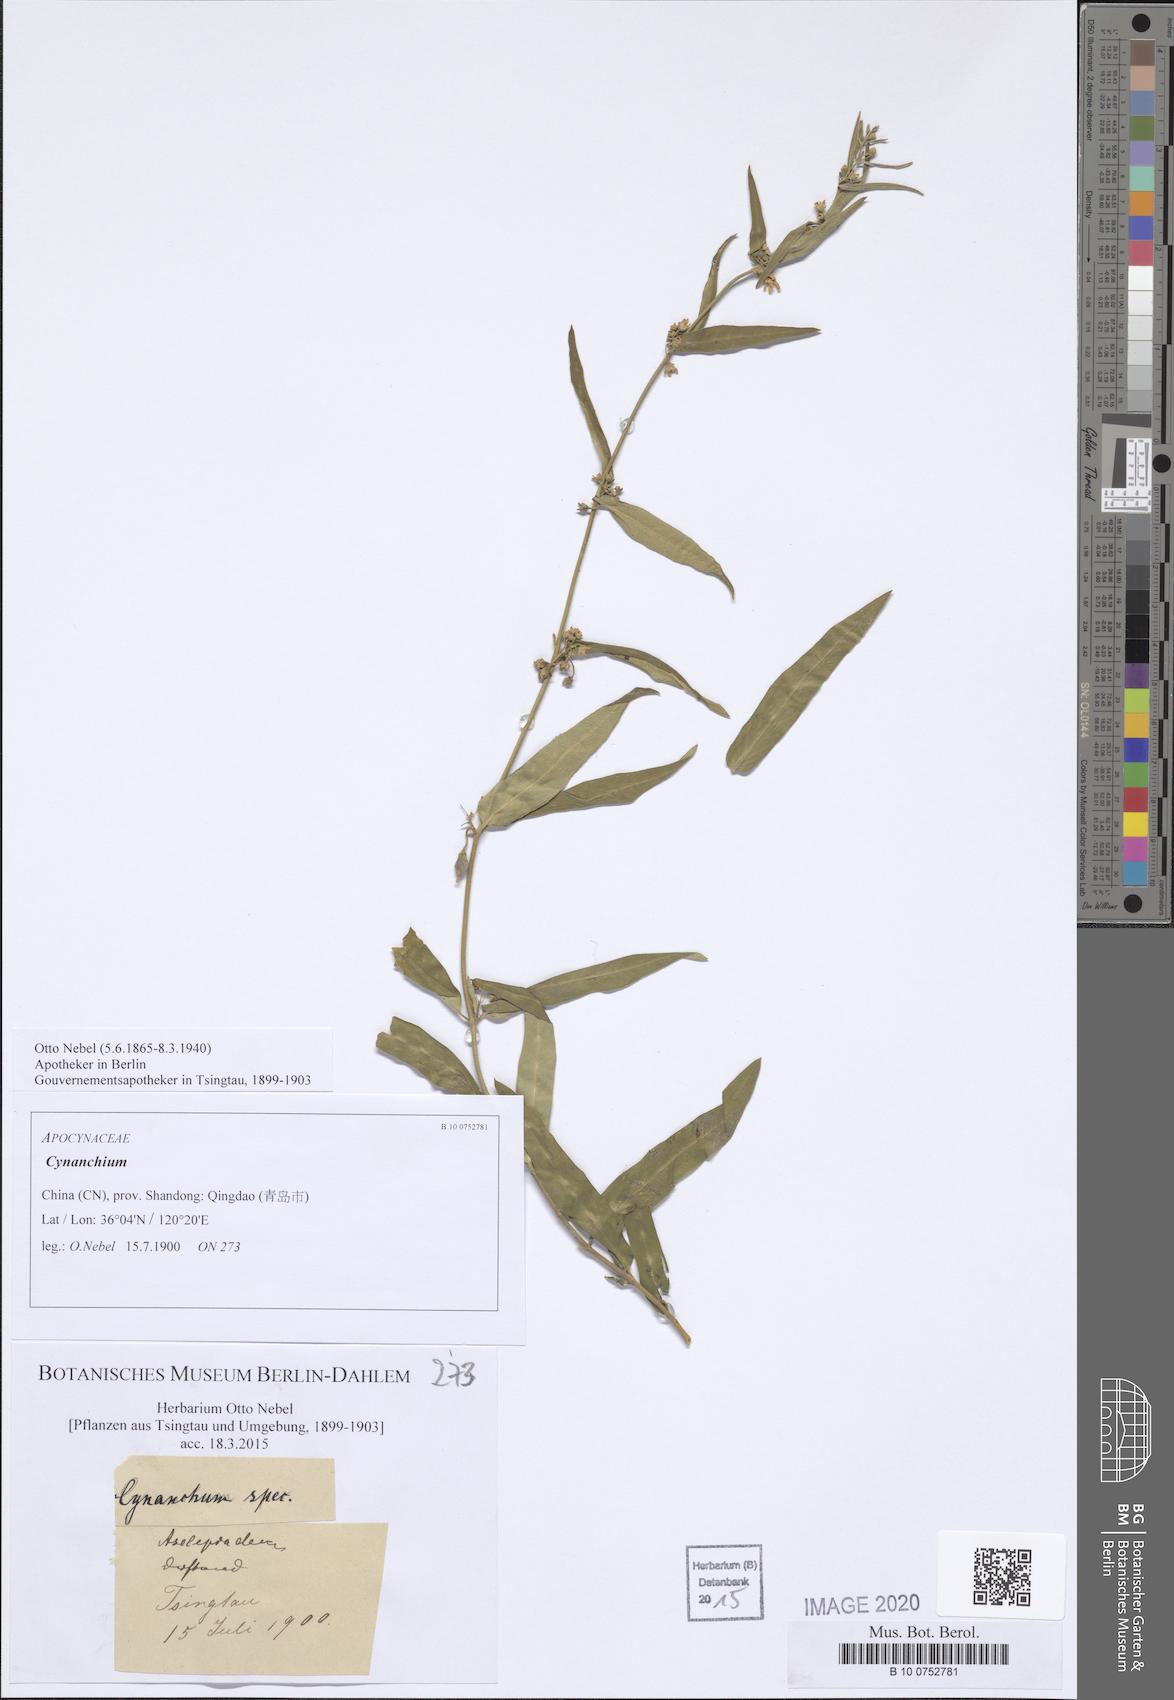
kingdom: Plantae
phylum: Tracheophyta
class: Magnoliopsida
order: Gentianales
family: Apocynaceae
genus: Cynanchum
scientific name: Cynanchum
